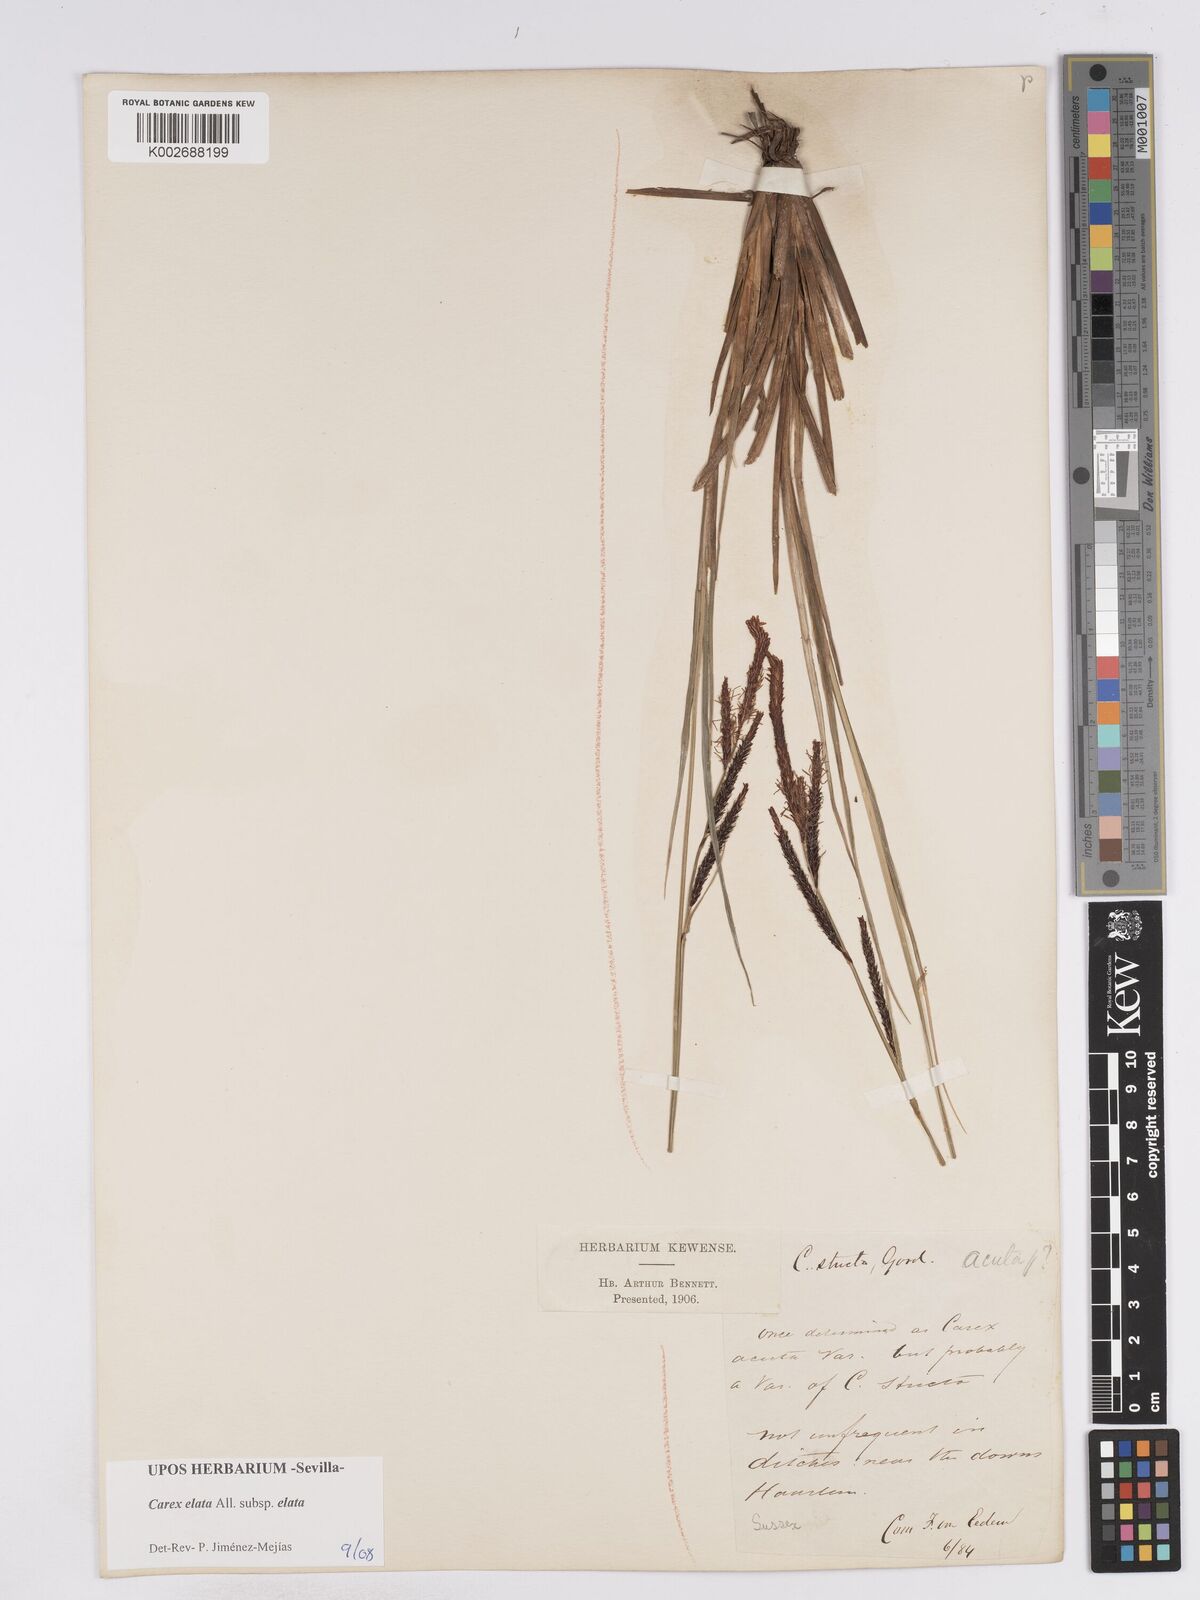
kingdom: Plantae
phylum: Tracheophyta
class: Liliopsida
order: Poales
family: Cyperaceae
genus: Carex
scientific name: Carex elata
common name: Tufted sedge
